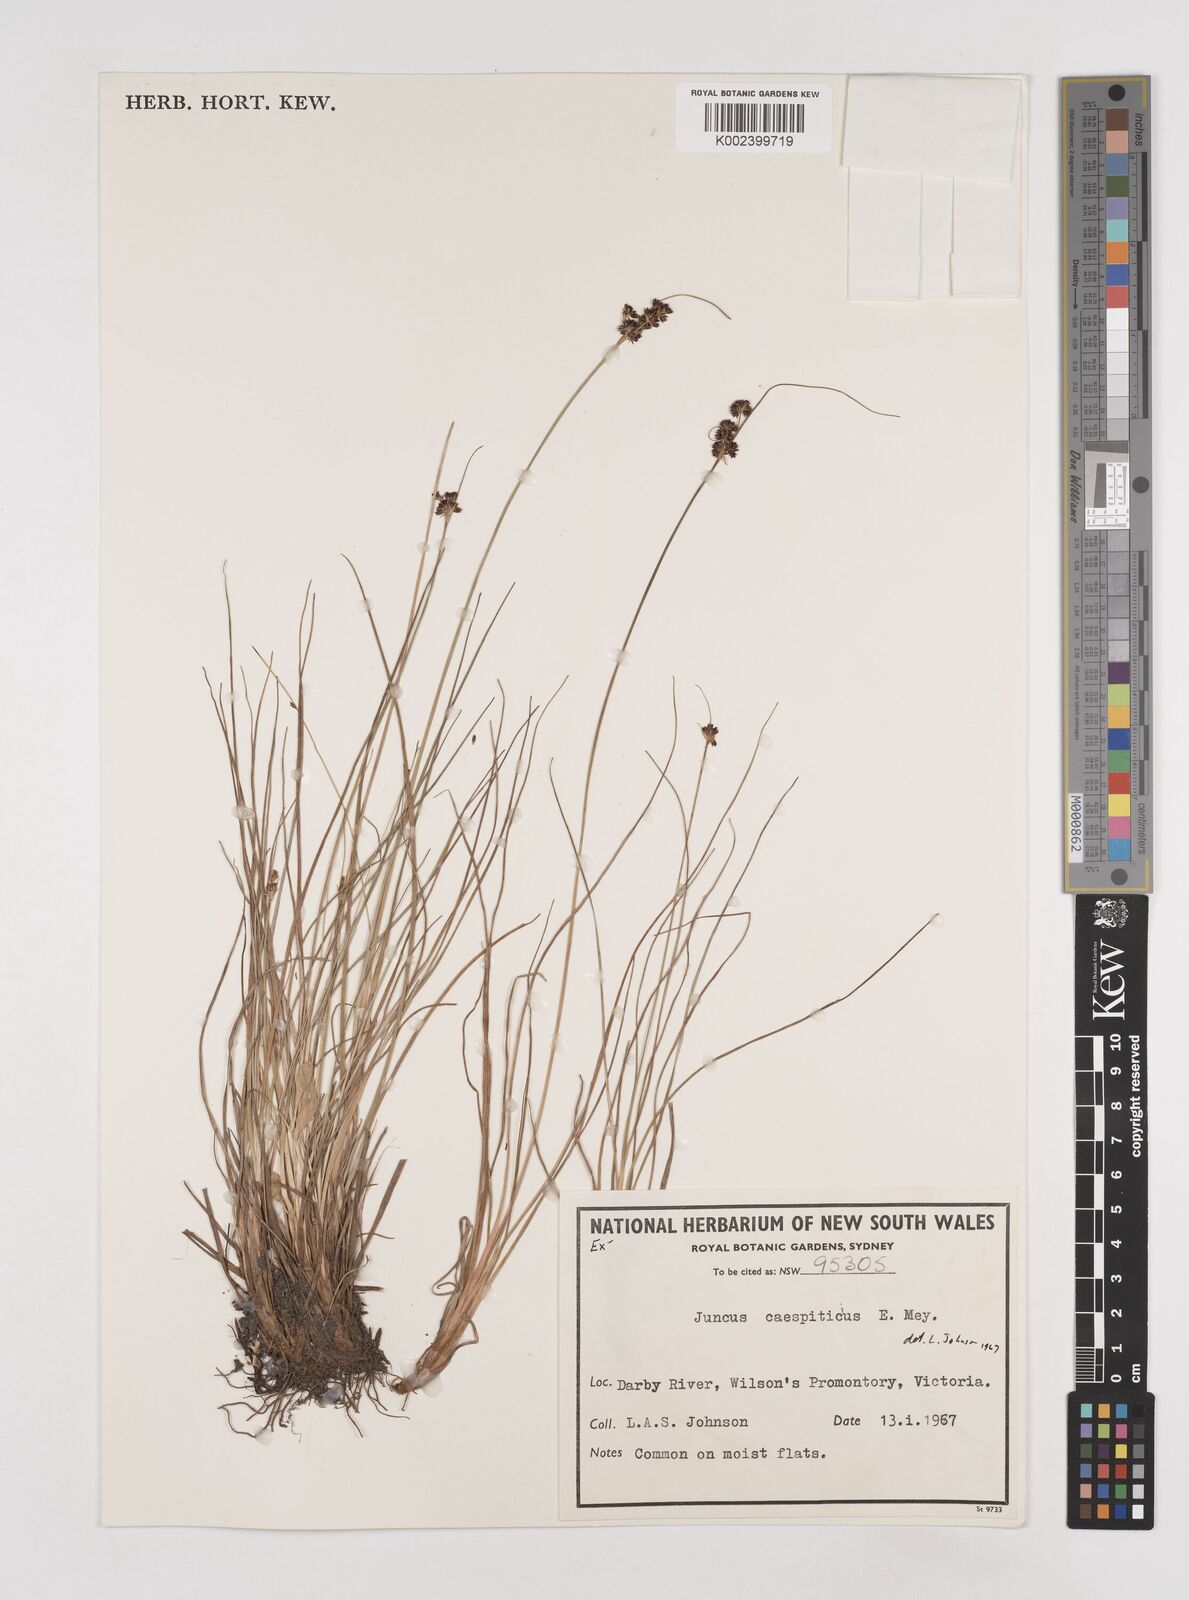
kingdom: Plantae
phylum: Tracheophyta
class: Liliopsida
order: Poales
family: Juncaceae
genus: Juncus
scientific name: Juncus caespiticius
